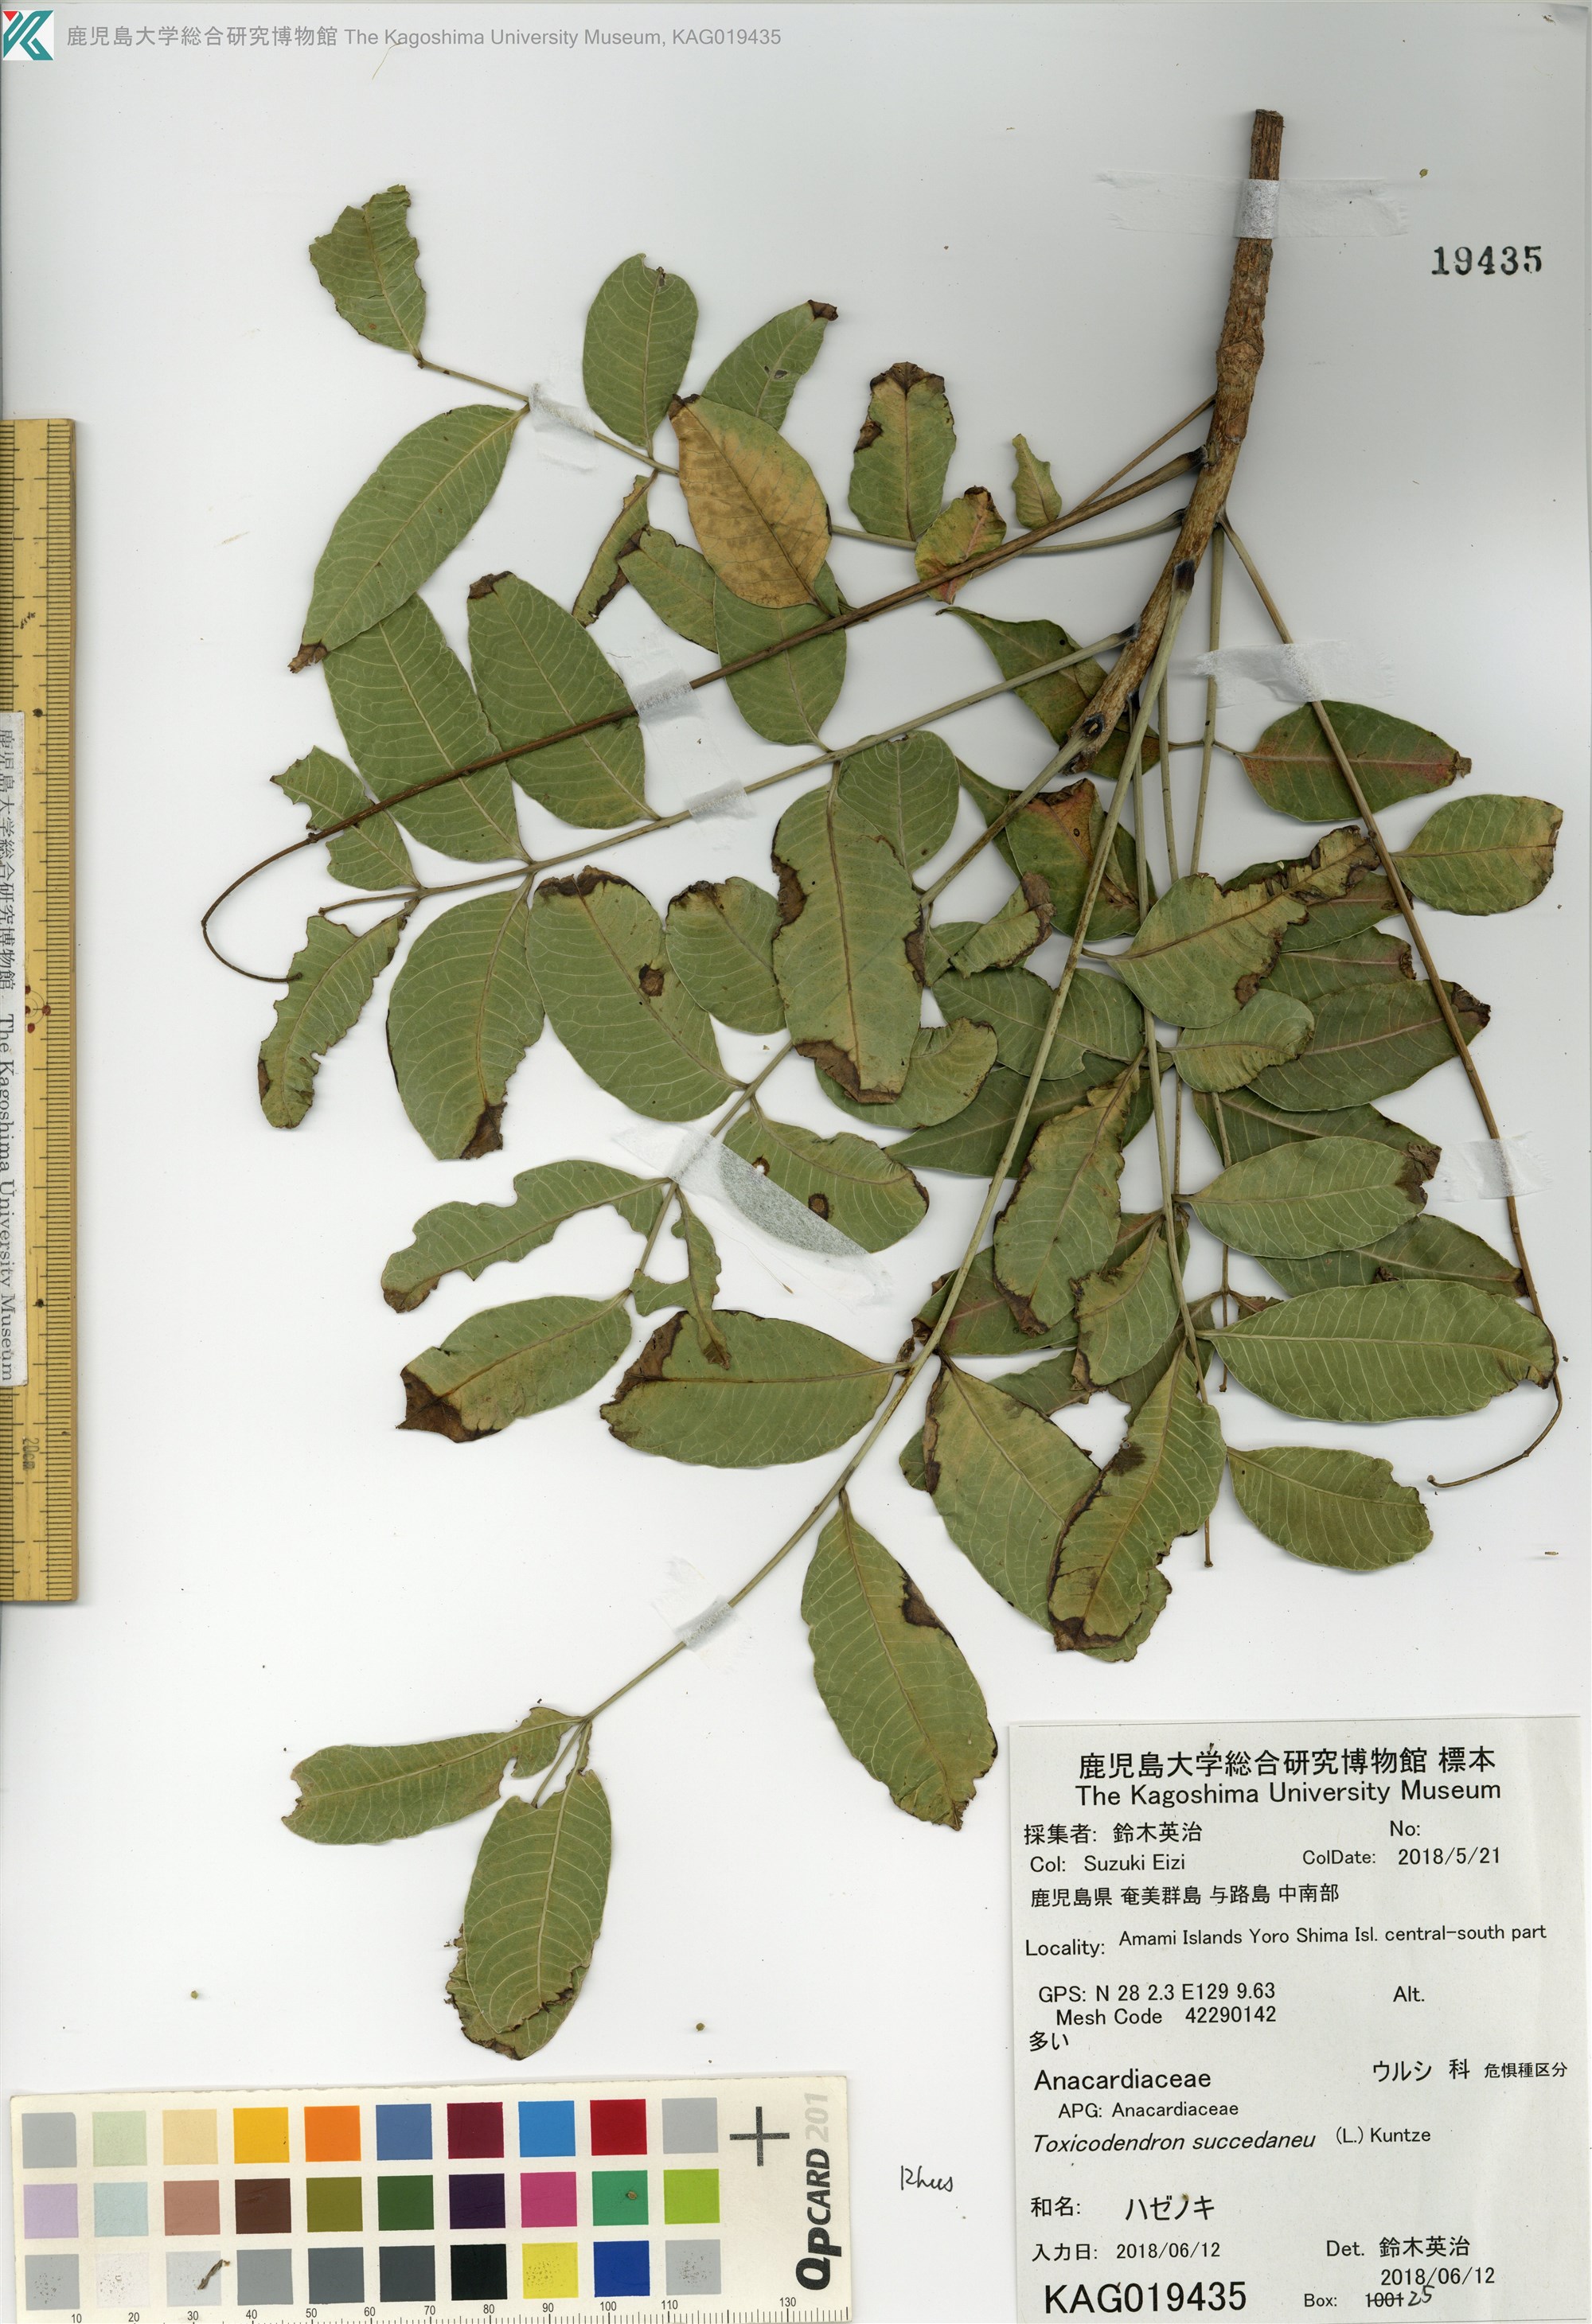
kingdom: Plantae
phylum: Tracheophyta
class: Magnoliopsida
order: Sapindales
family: Anacardiaceae
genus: Toxicodendron
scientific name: Toxicodendron succedaneum
